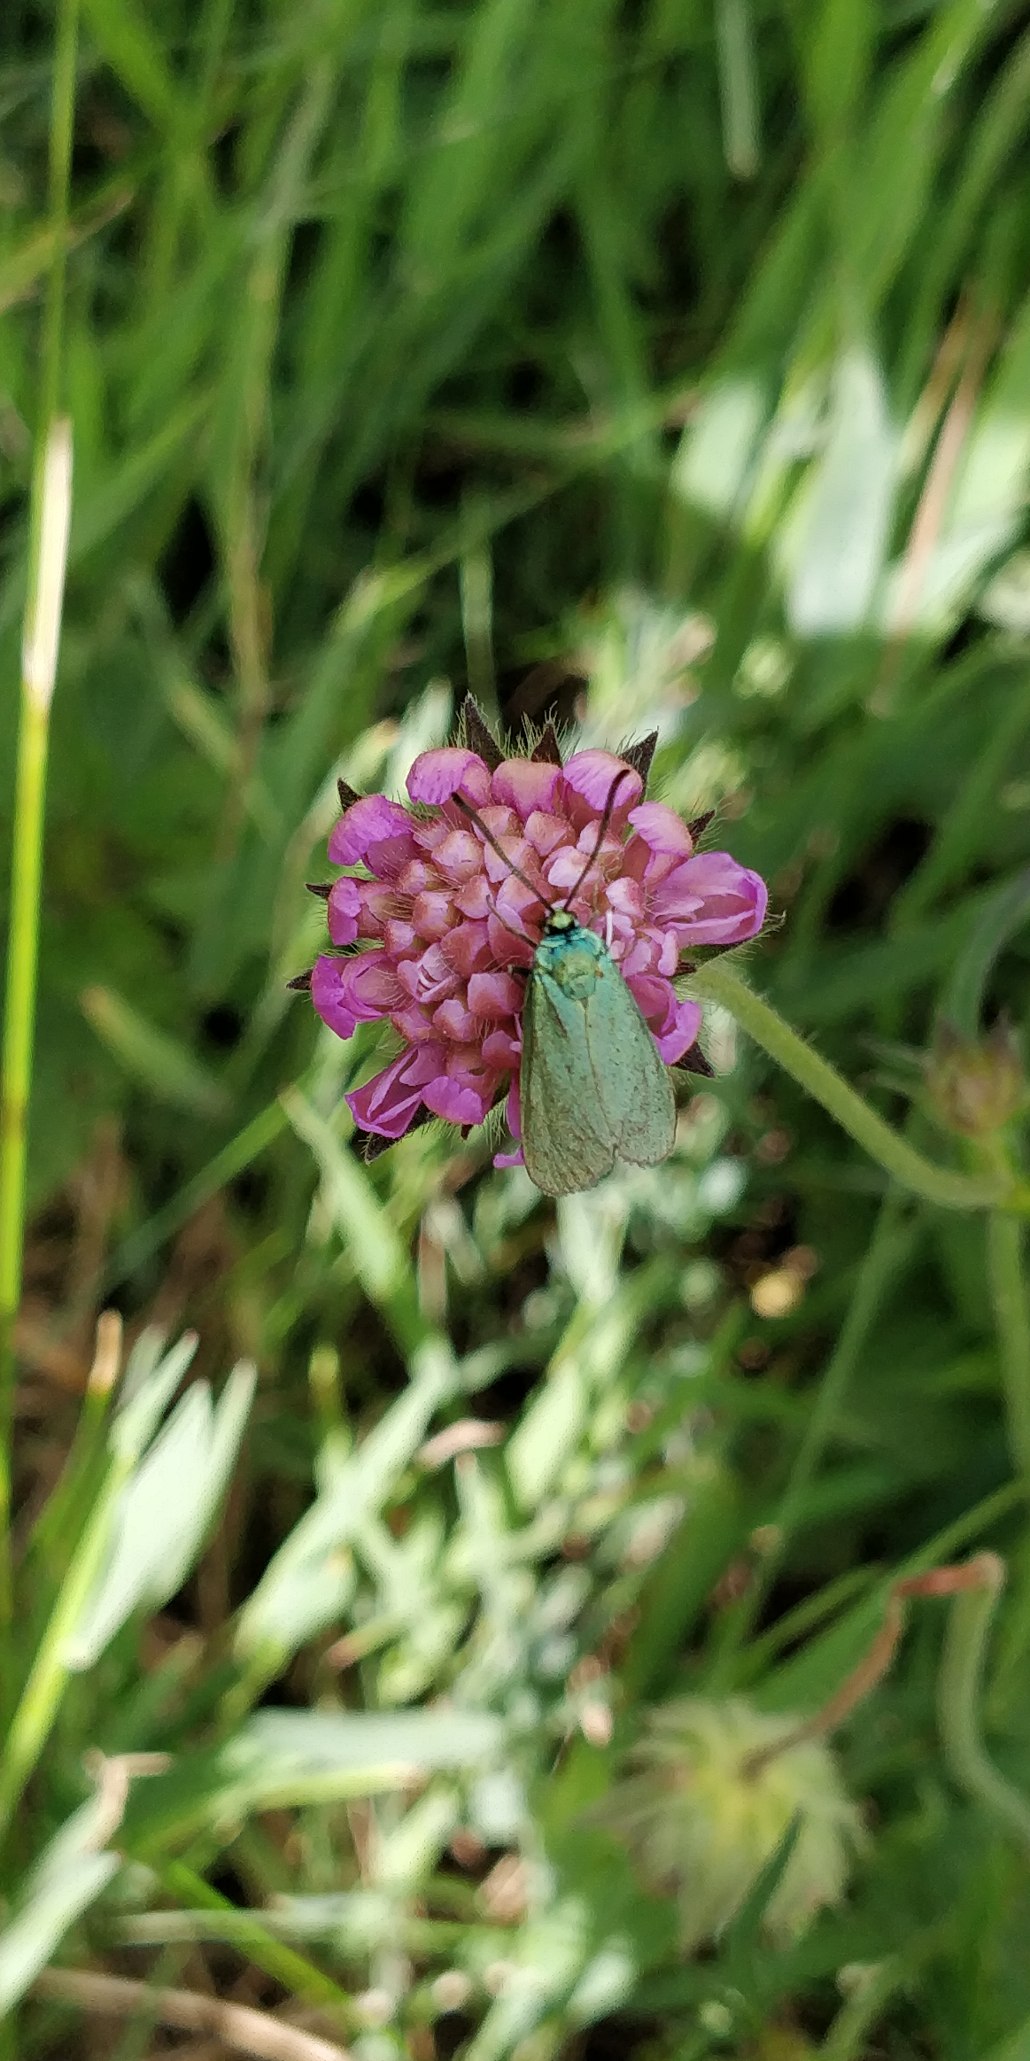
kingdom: Animalia
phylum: Arthropoda
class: Insecta
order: Lepidoptera
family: Zygaenidae
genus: Adscita
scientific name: Adscita statices
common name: Metalvinge
